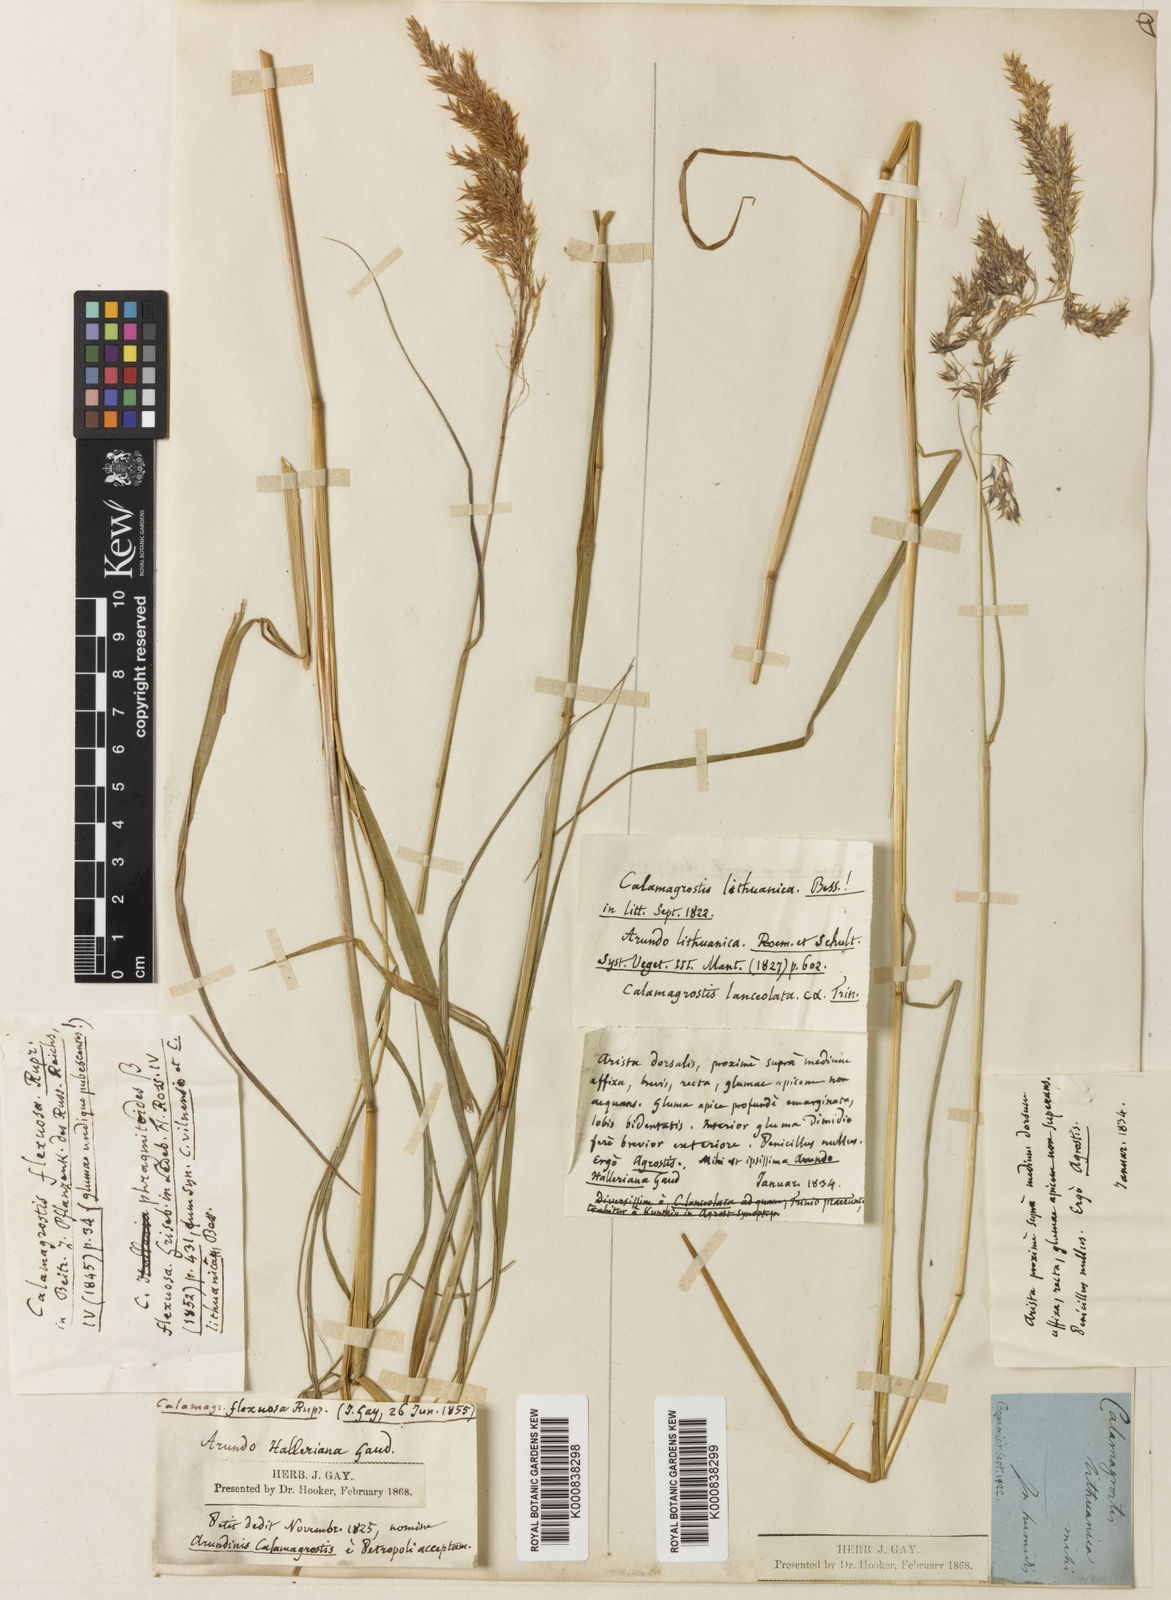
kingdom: Plantae
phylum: Tracheophyta
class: Liliopsida
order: Poales
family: Poaceae
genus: Calamagrostis
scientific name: Calamagrostis villosa
